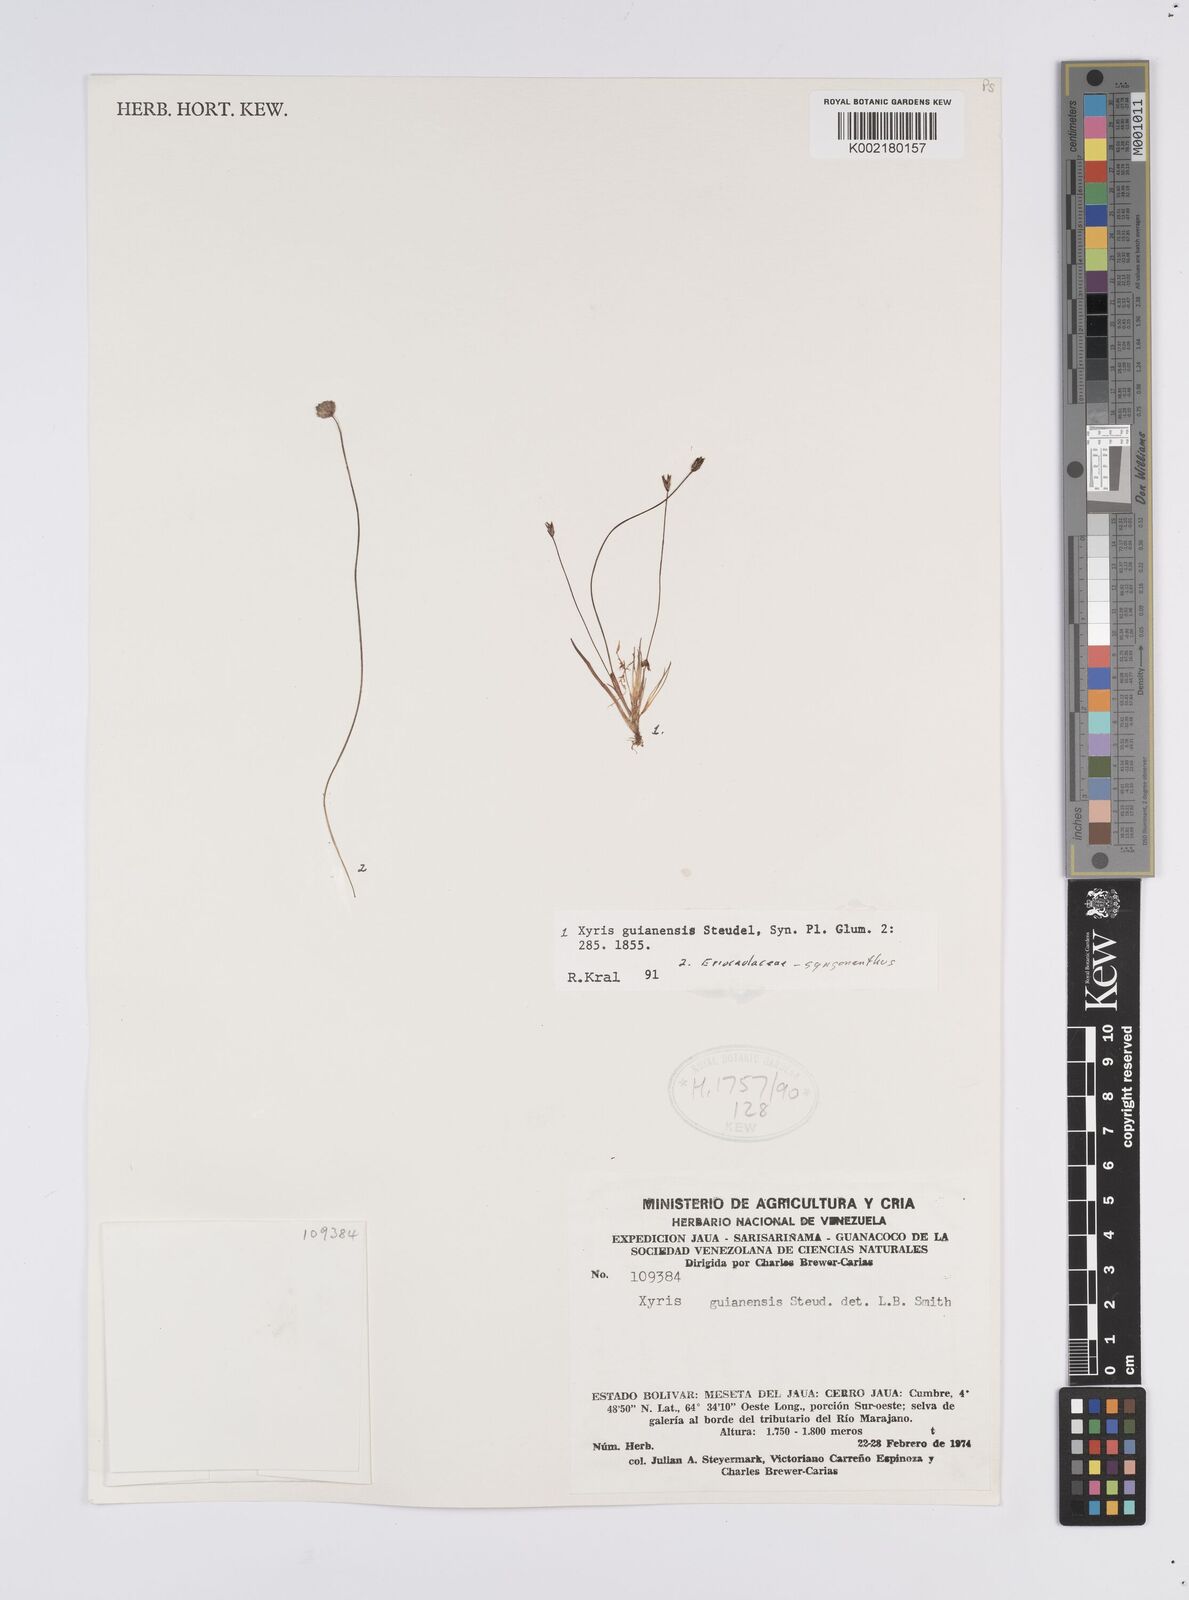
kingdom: Plantae
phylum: Tracheophyta
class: Liliopsida
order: Poales
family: Xyridaceae
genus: Xyris
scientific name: Xyris guianensis
